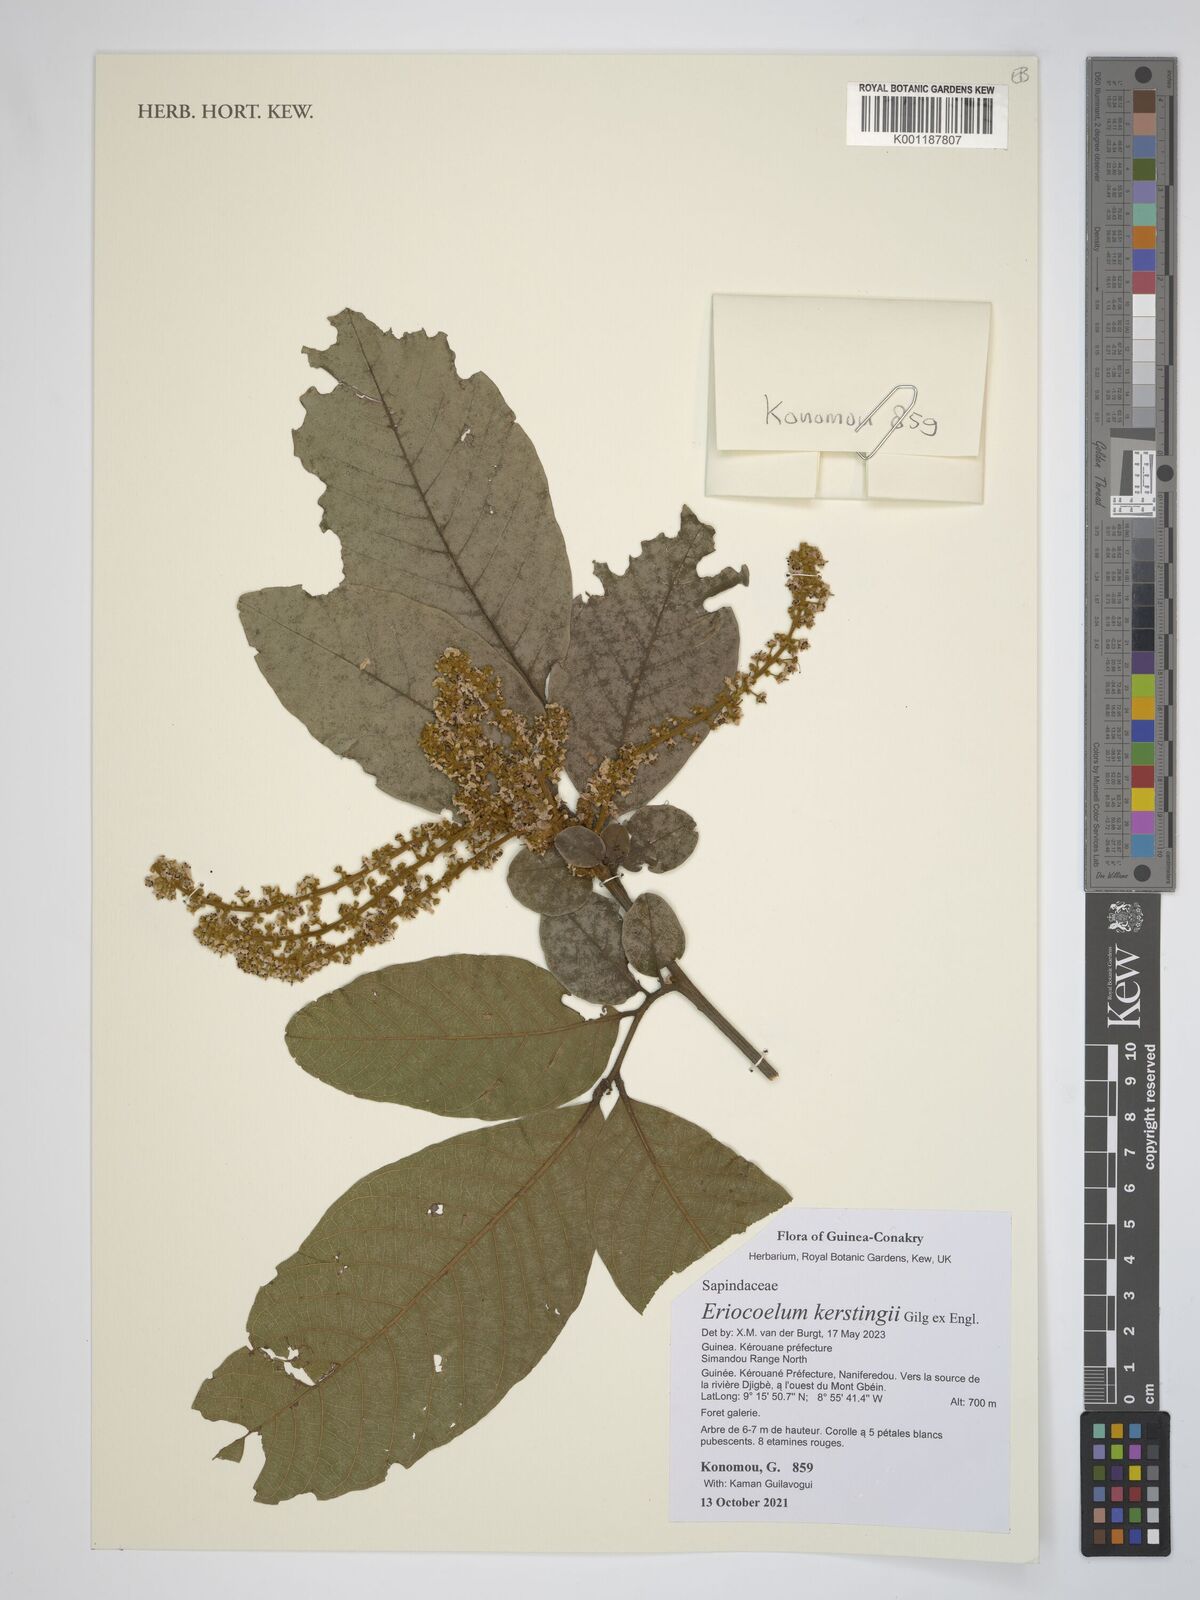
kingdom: Plantae
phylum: Tracheophyta
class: Magnoliopsida
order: Sapindales
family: Sapindaceae
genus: Eriocoelum
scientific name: Eriocoelum kerstingii
